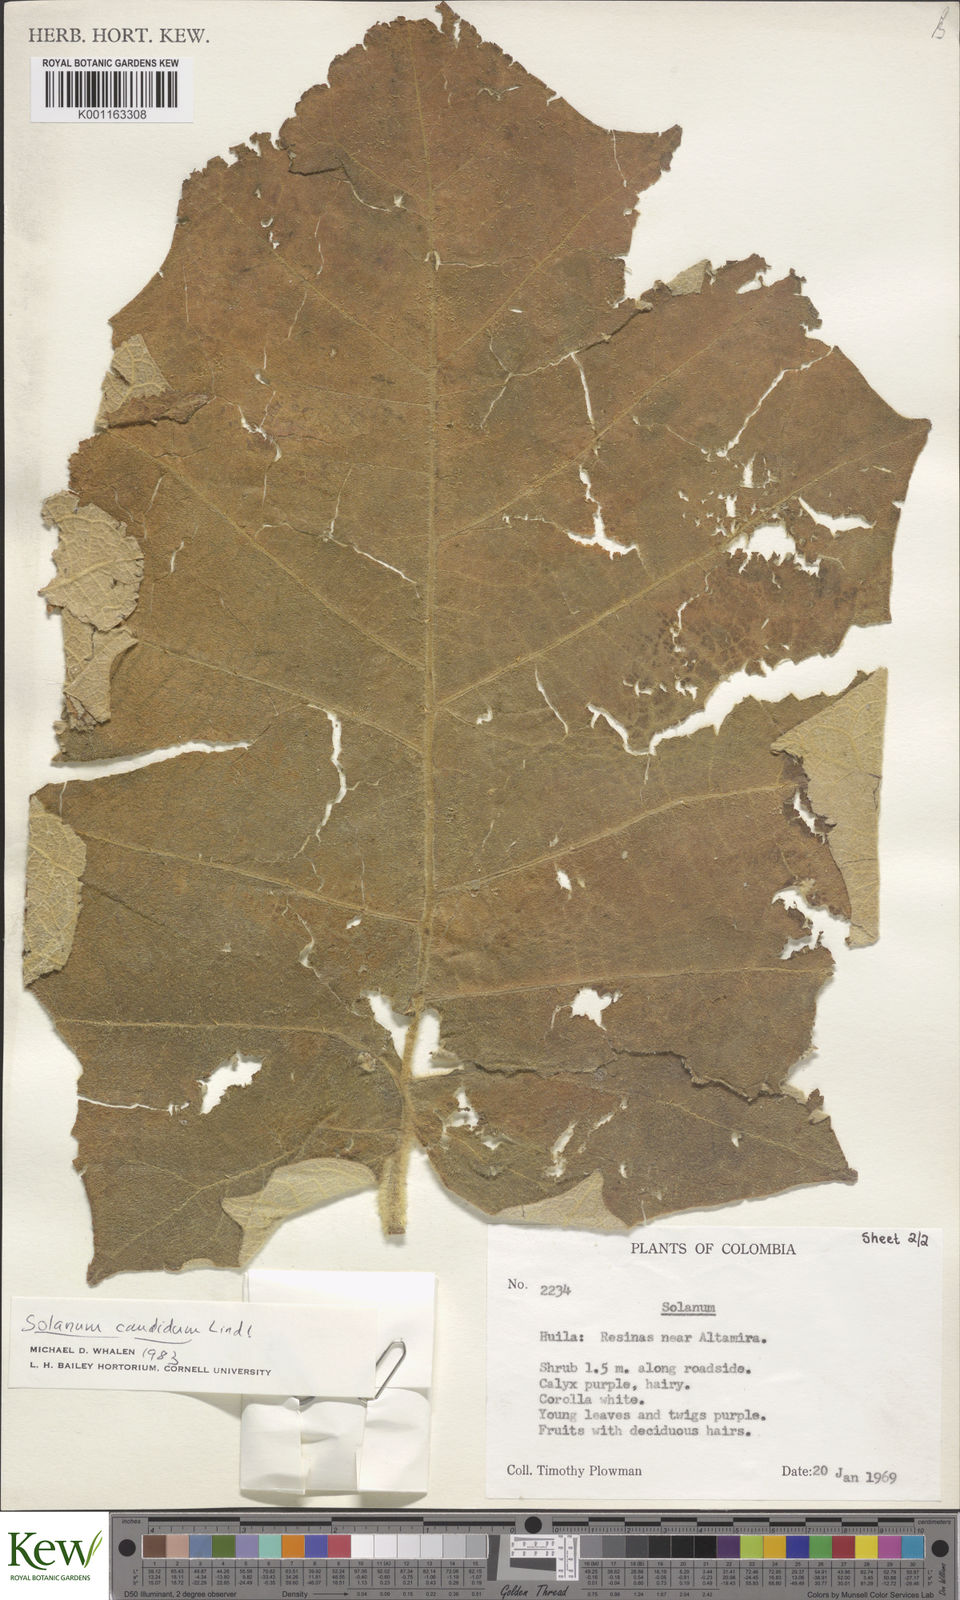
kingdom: Plantae
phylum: Tracheophyta
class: Magnoliopsida
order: Solanales
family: Solanaceae
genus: Solanum
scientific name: Solanum candidum
